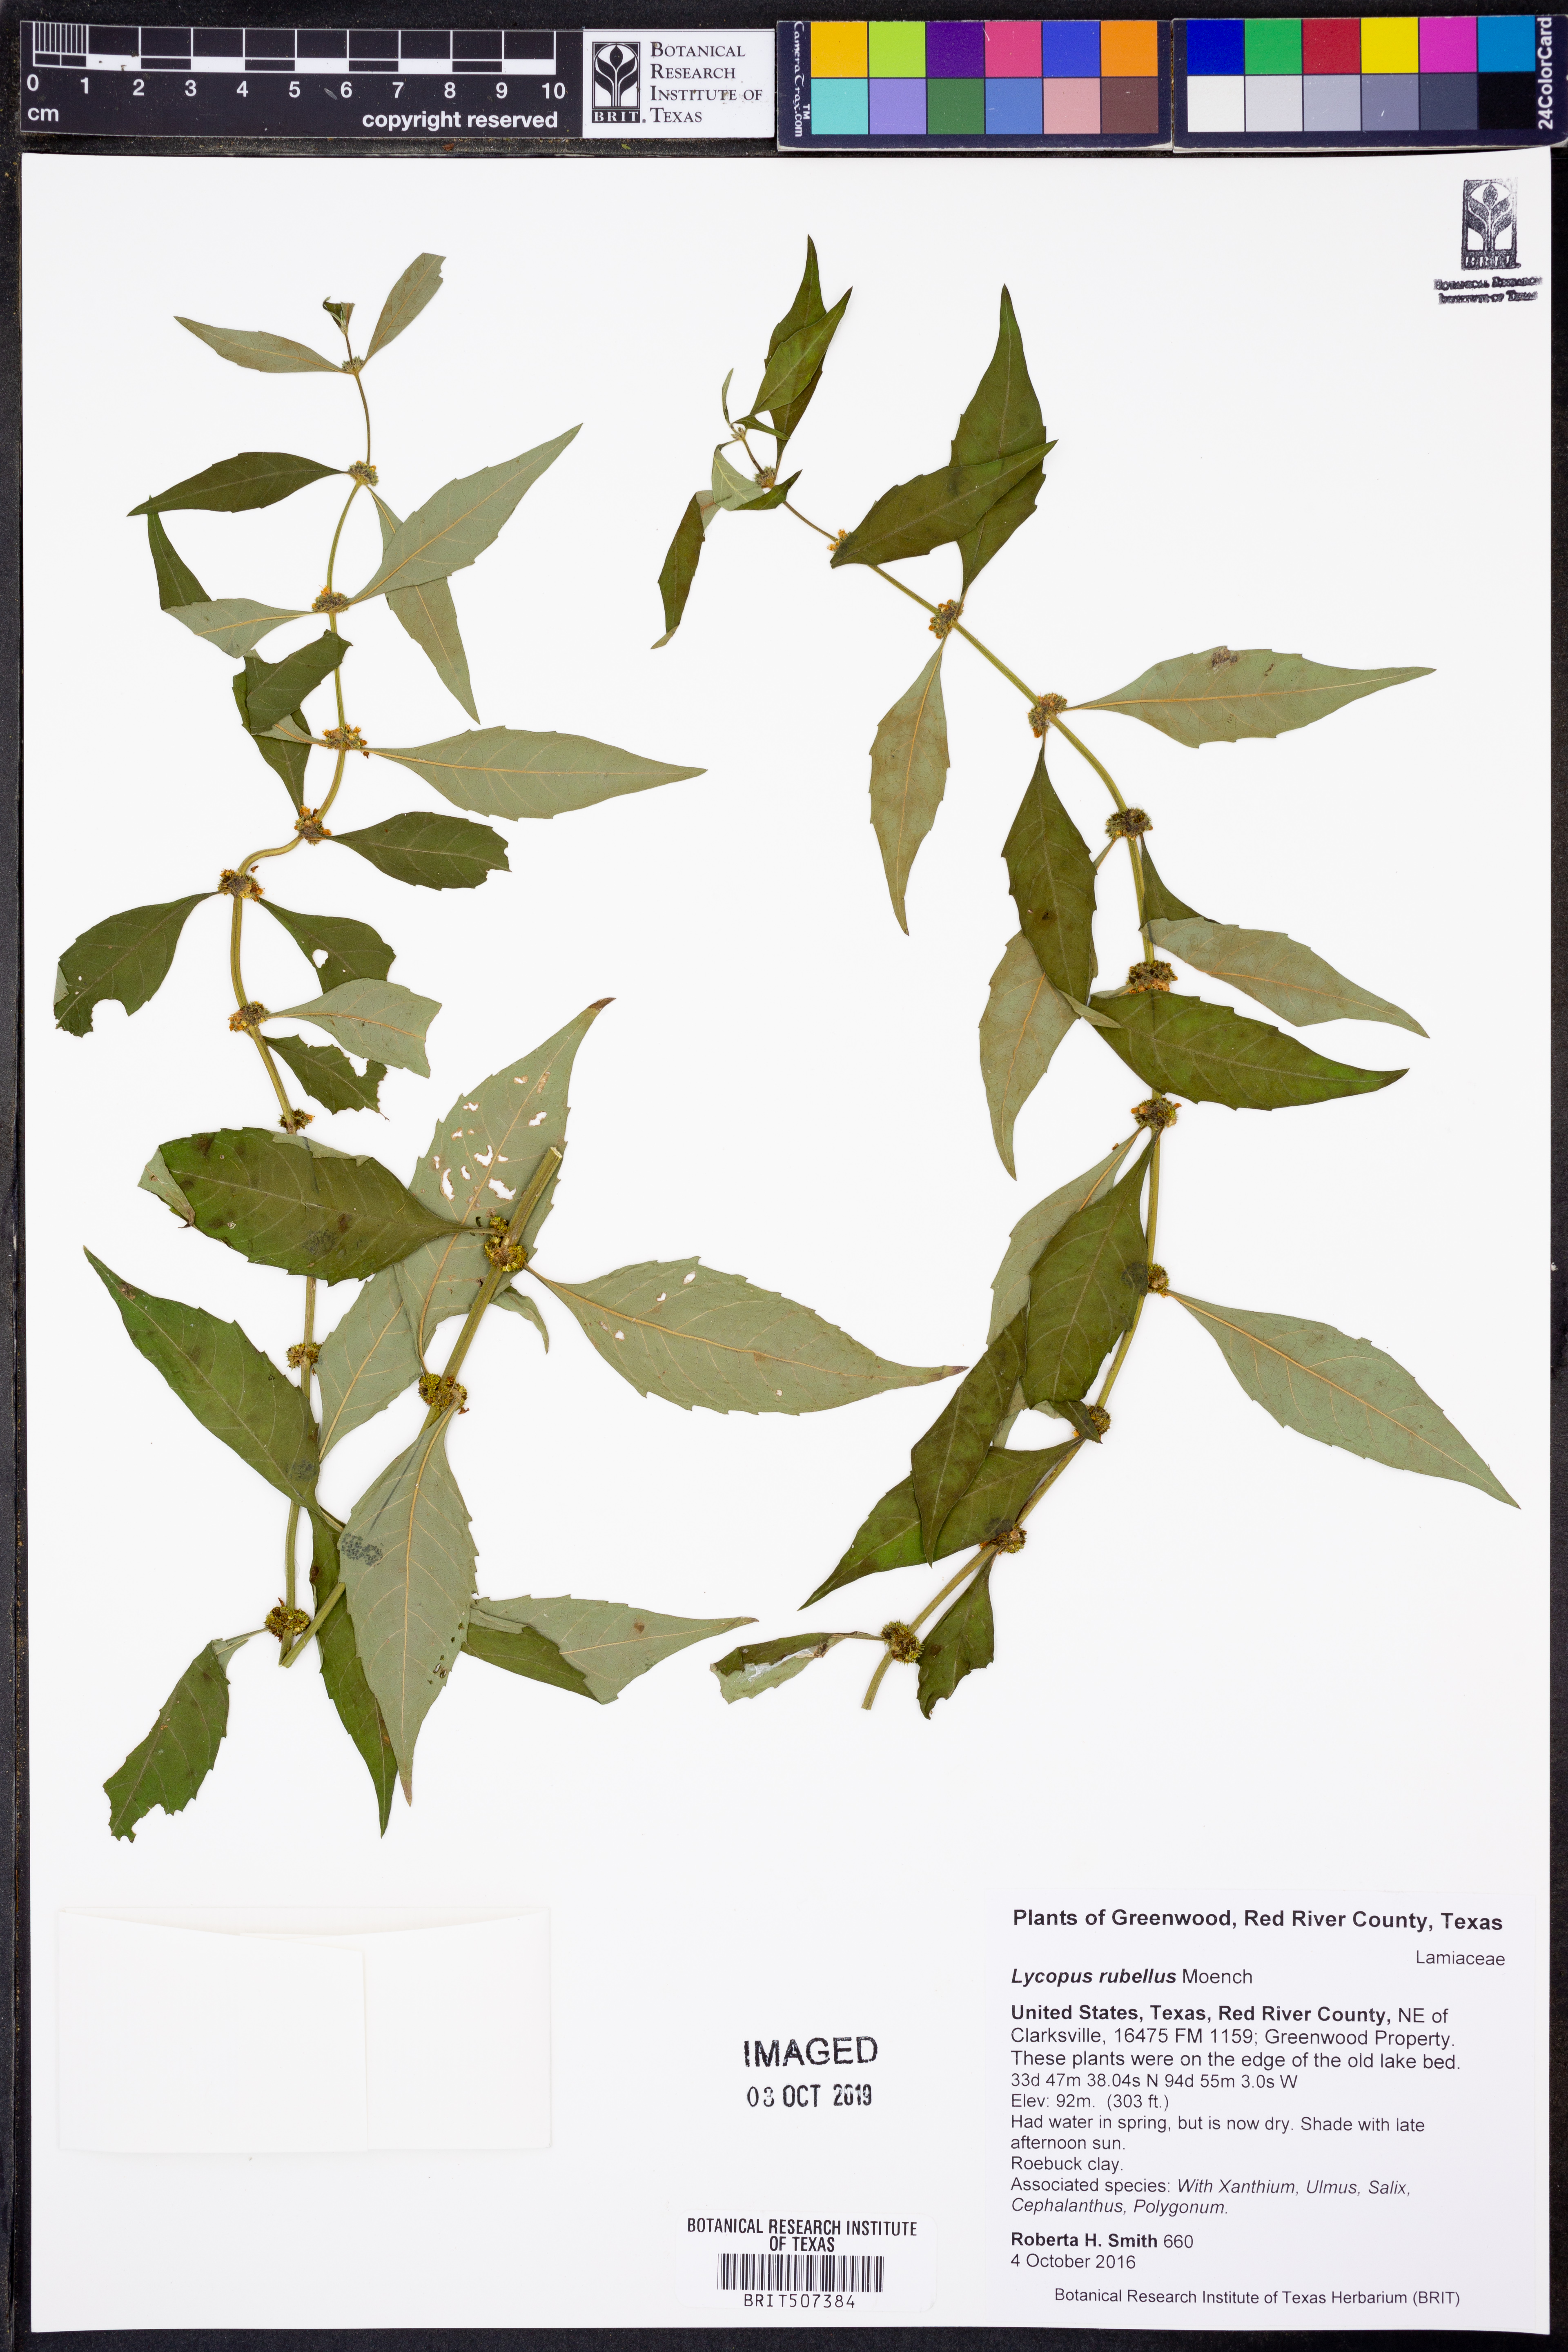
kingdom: Plantae
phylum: Tracheophyta
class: Magnoliopsida
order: Lamiales
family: Lamiaceae
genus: Lycopus
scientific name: Lycopus rubellus
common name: Stalked bugleweed
